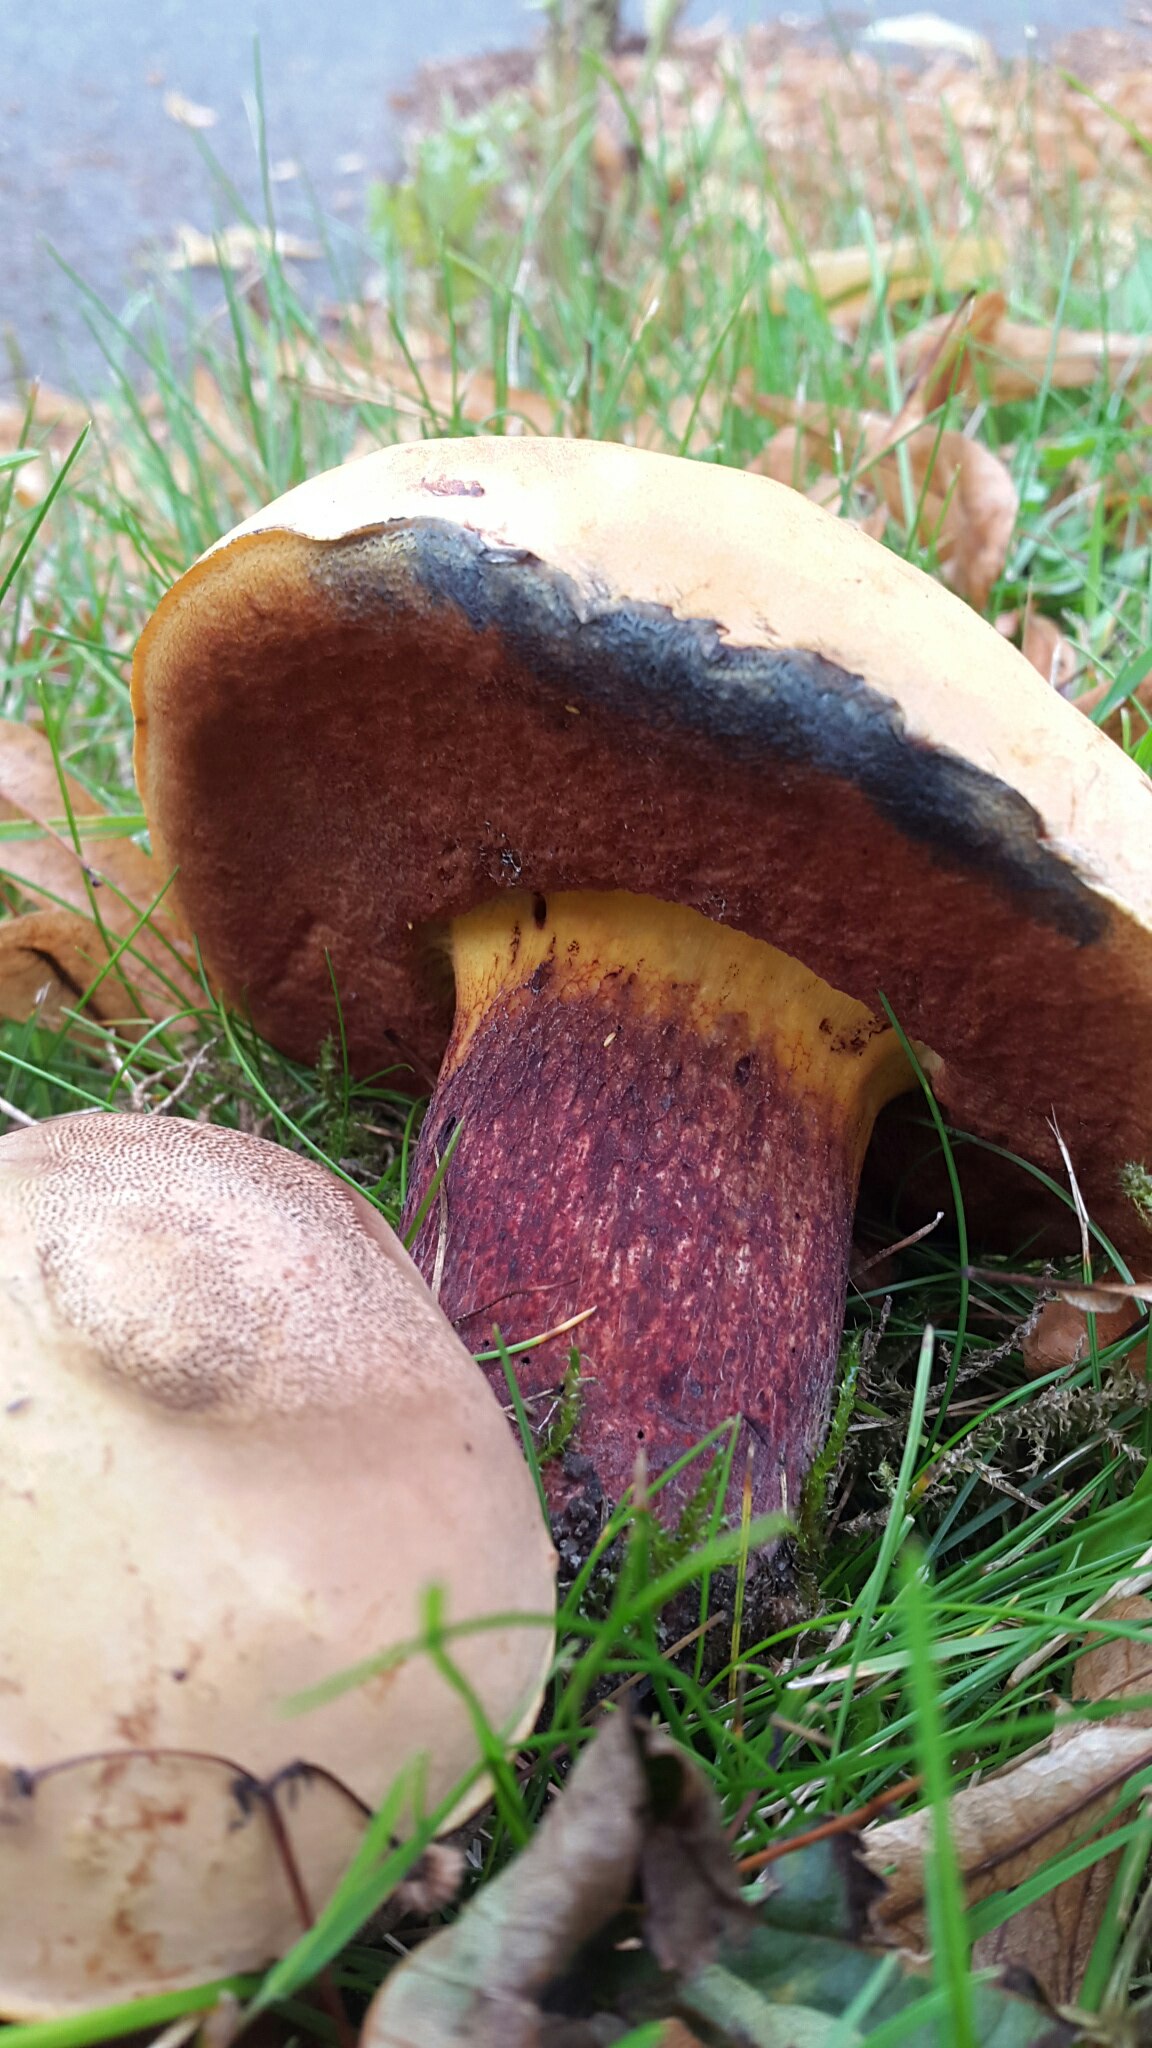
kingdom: Fungi
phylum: Basidiomycota
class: Agaricomycetes
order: Boletales
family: Boletaceae
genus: Suillellus
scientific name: Suillellus luridus
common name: netstokket indigorørhat
